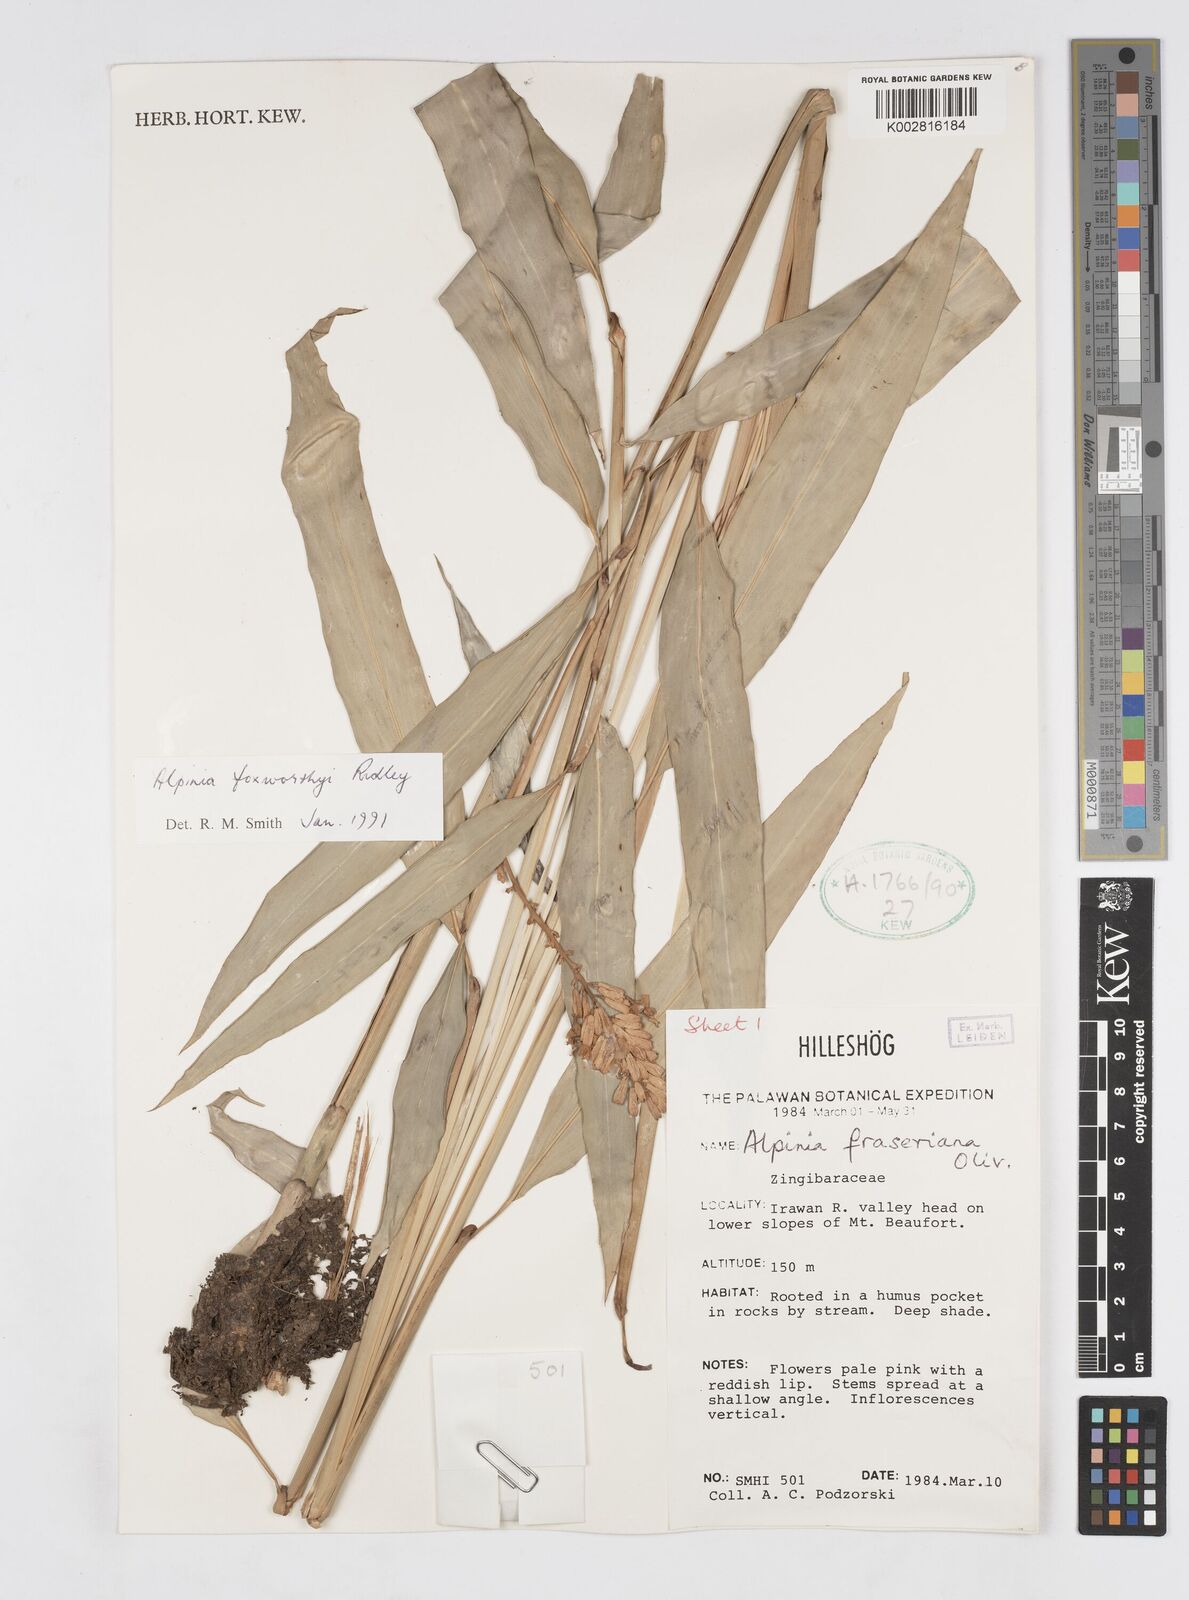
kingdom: Plantae
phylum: Tracheophyta
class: Liliopsida
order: Zingiberales
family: Zingiberaceae
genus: Alpinia
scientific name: Alpinia foxworthyi
